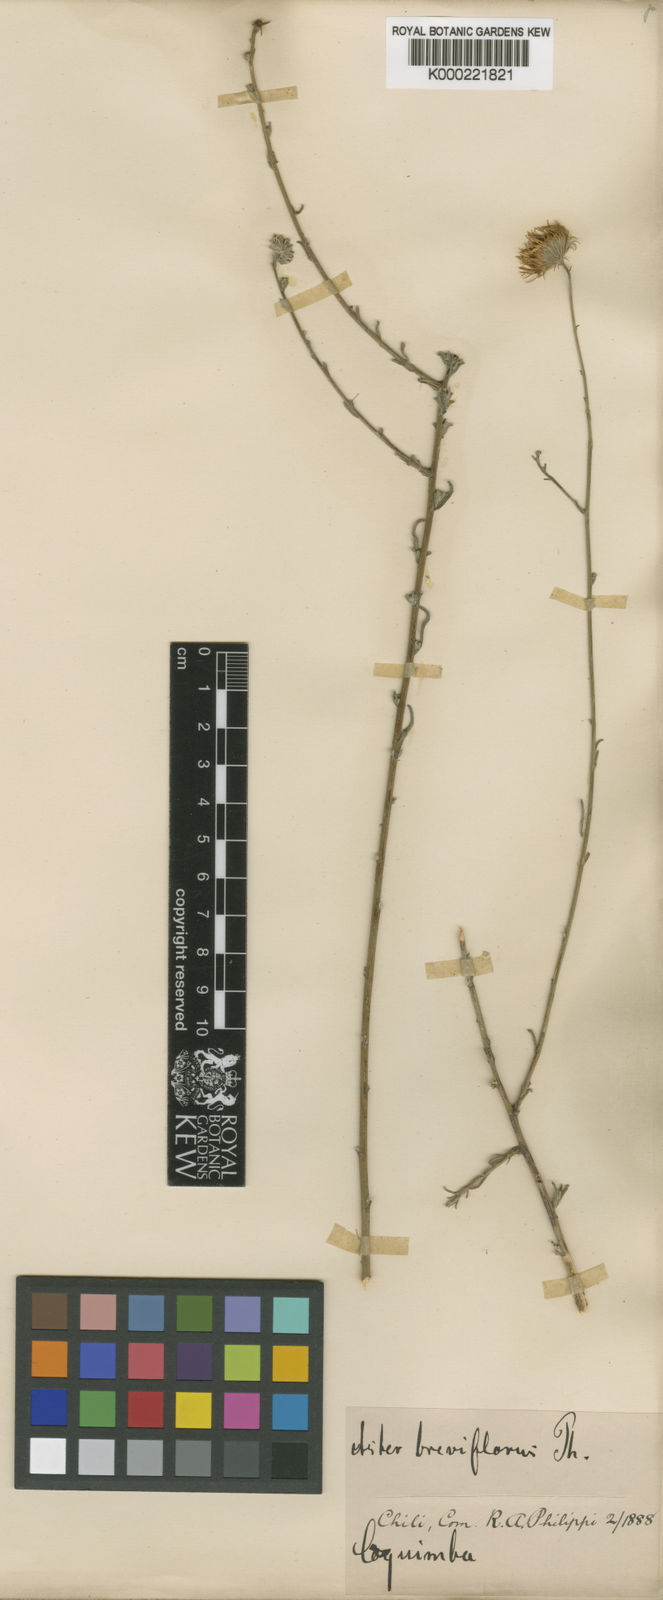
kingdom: Plantae
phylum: Tracheophyta
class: Magnoliopsida
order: Asterales
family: Asteraceae
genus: Erigeron
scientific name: Erigeron
